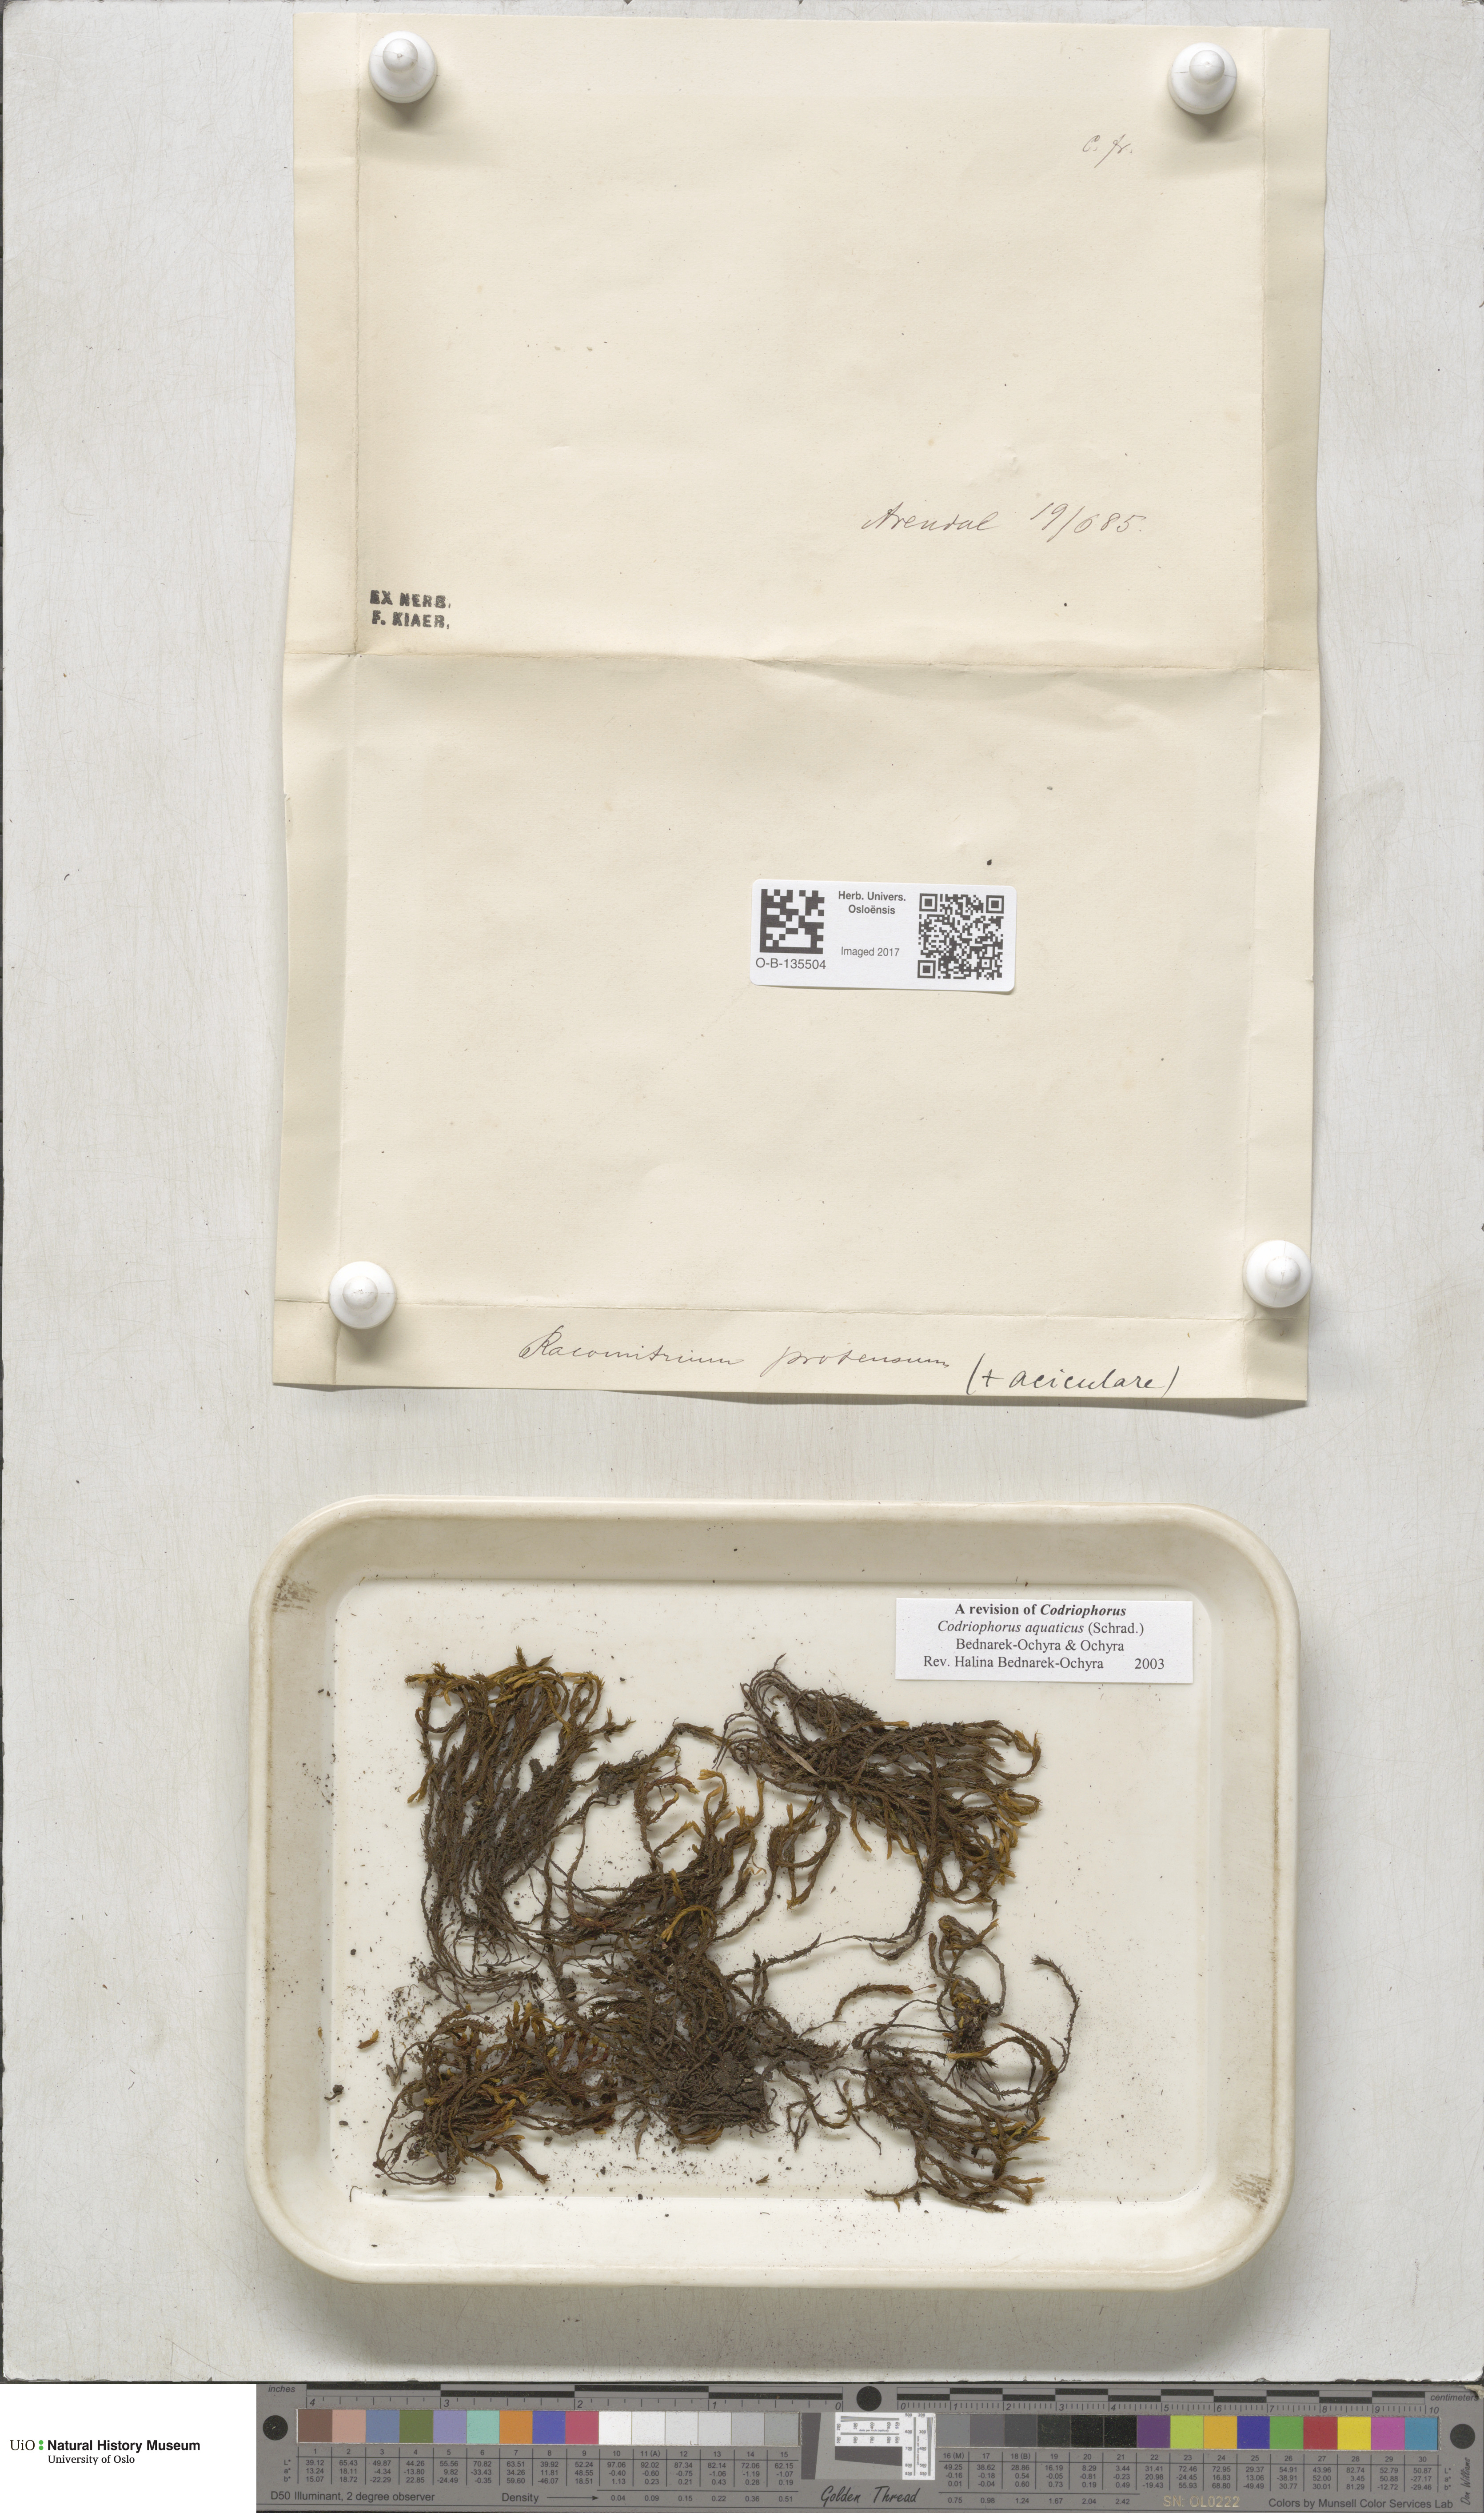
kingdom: Plantae
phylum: Bryophyta
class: Bryopsida
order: Grimmiales
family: Grimmiaceae
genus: Codriophorus
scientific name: Codriophorus aquaticus
